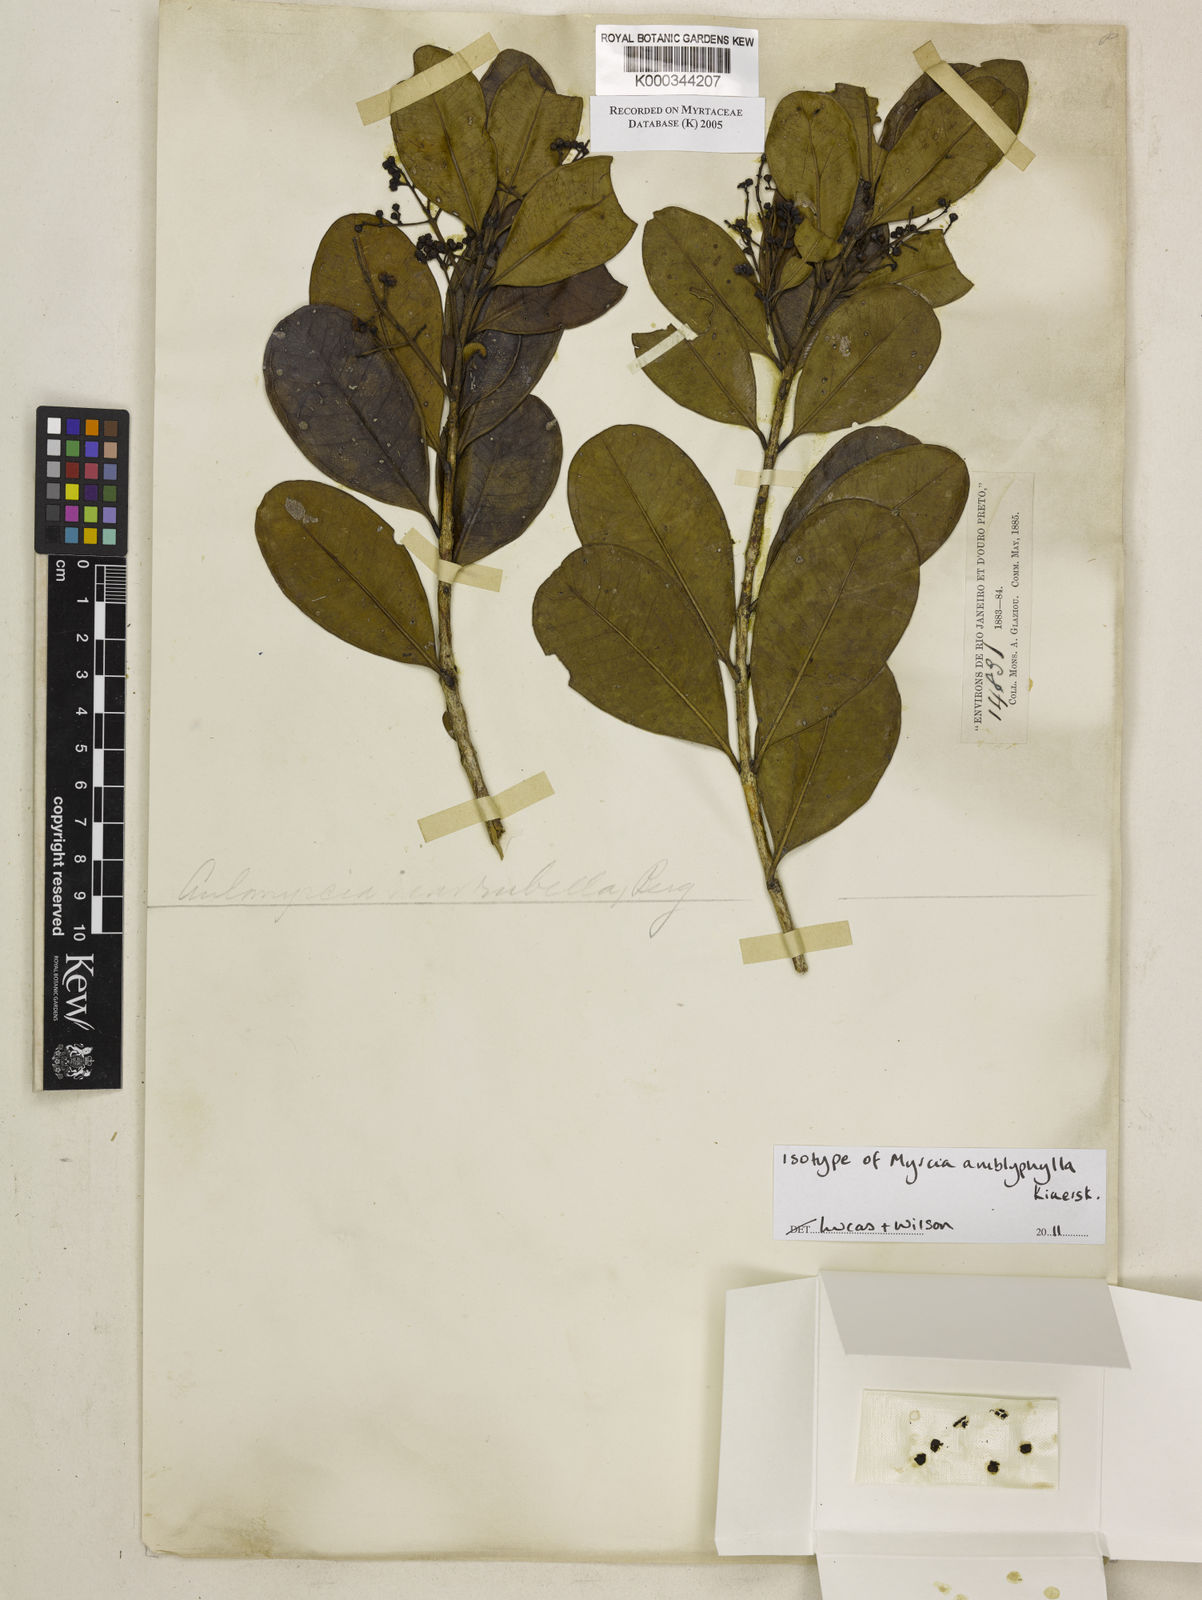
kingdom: Plantae
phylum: Tracheophyta
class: Magnoliopsida
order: Myrtales
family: Myrtaceae
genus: Myrcia
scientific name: Myrcia
